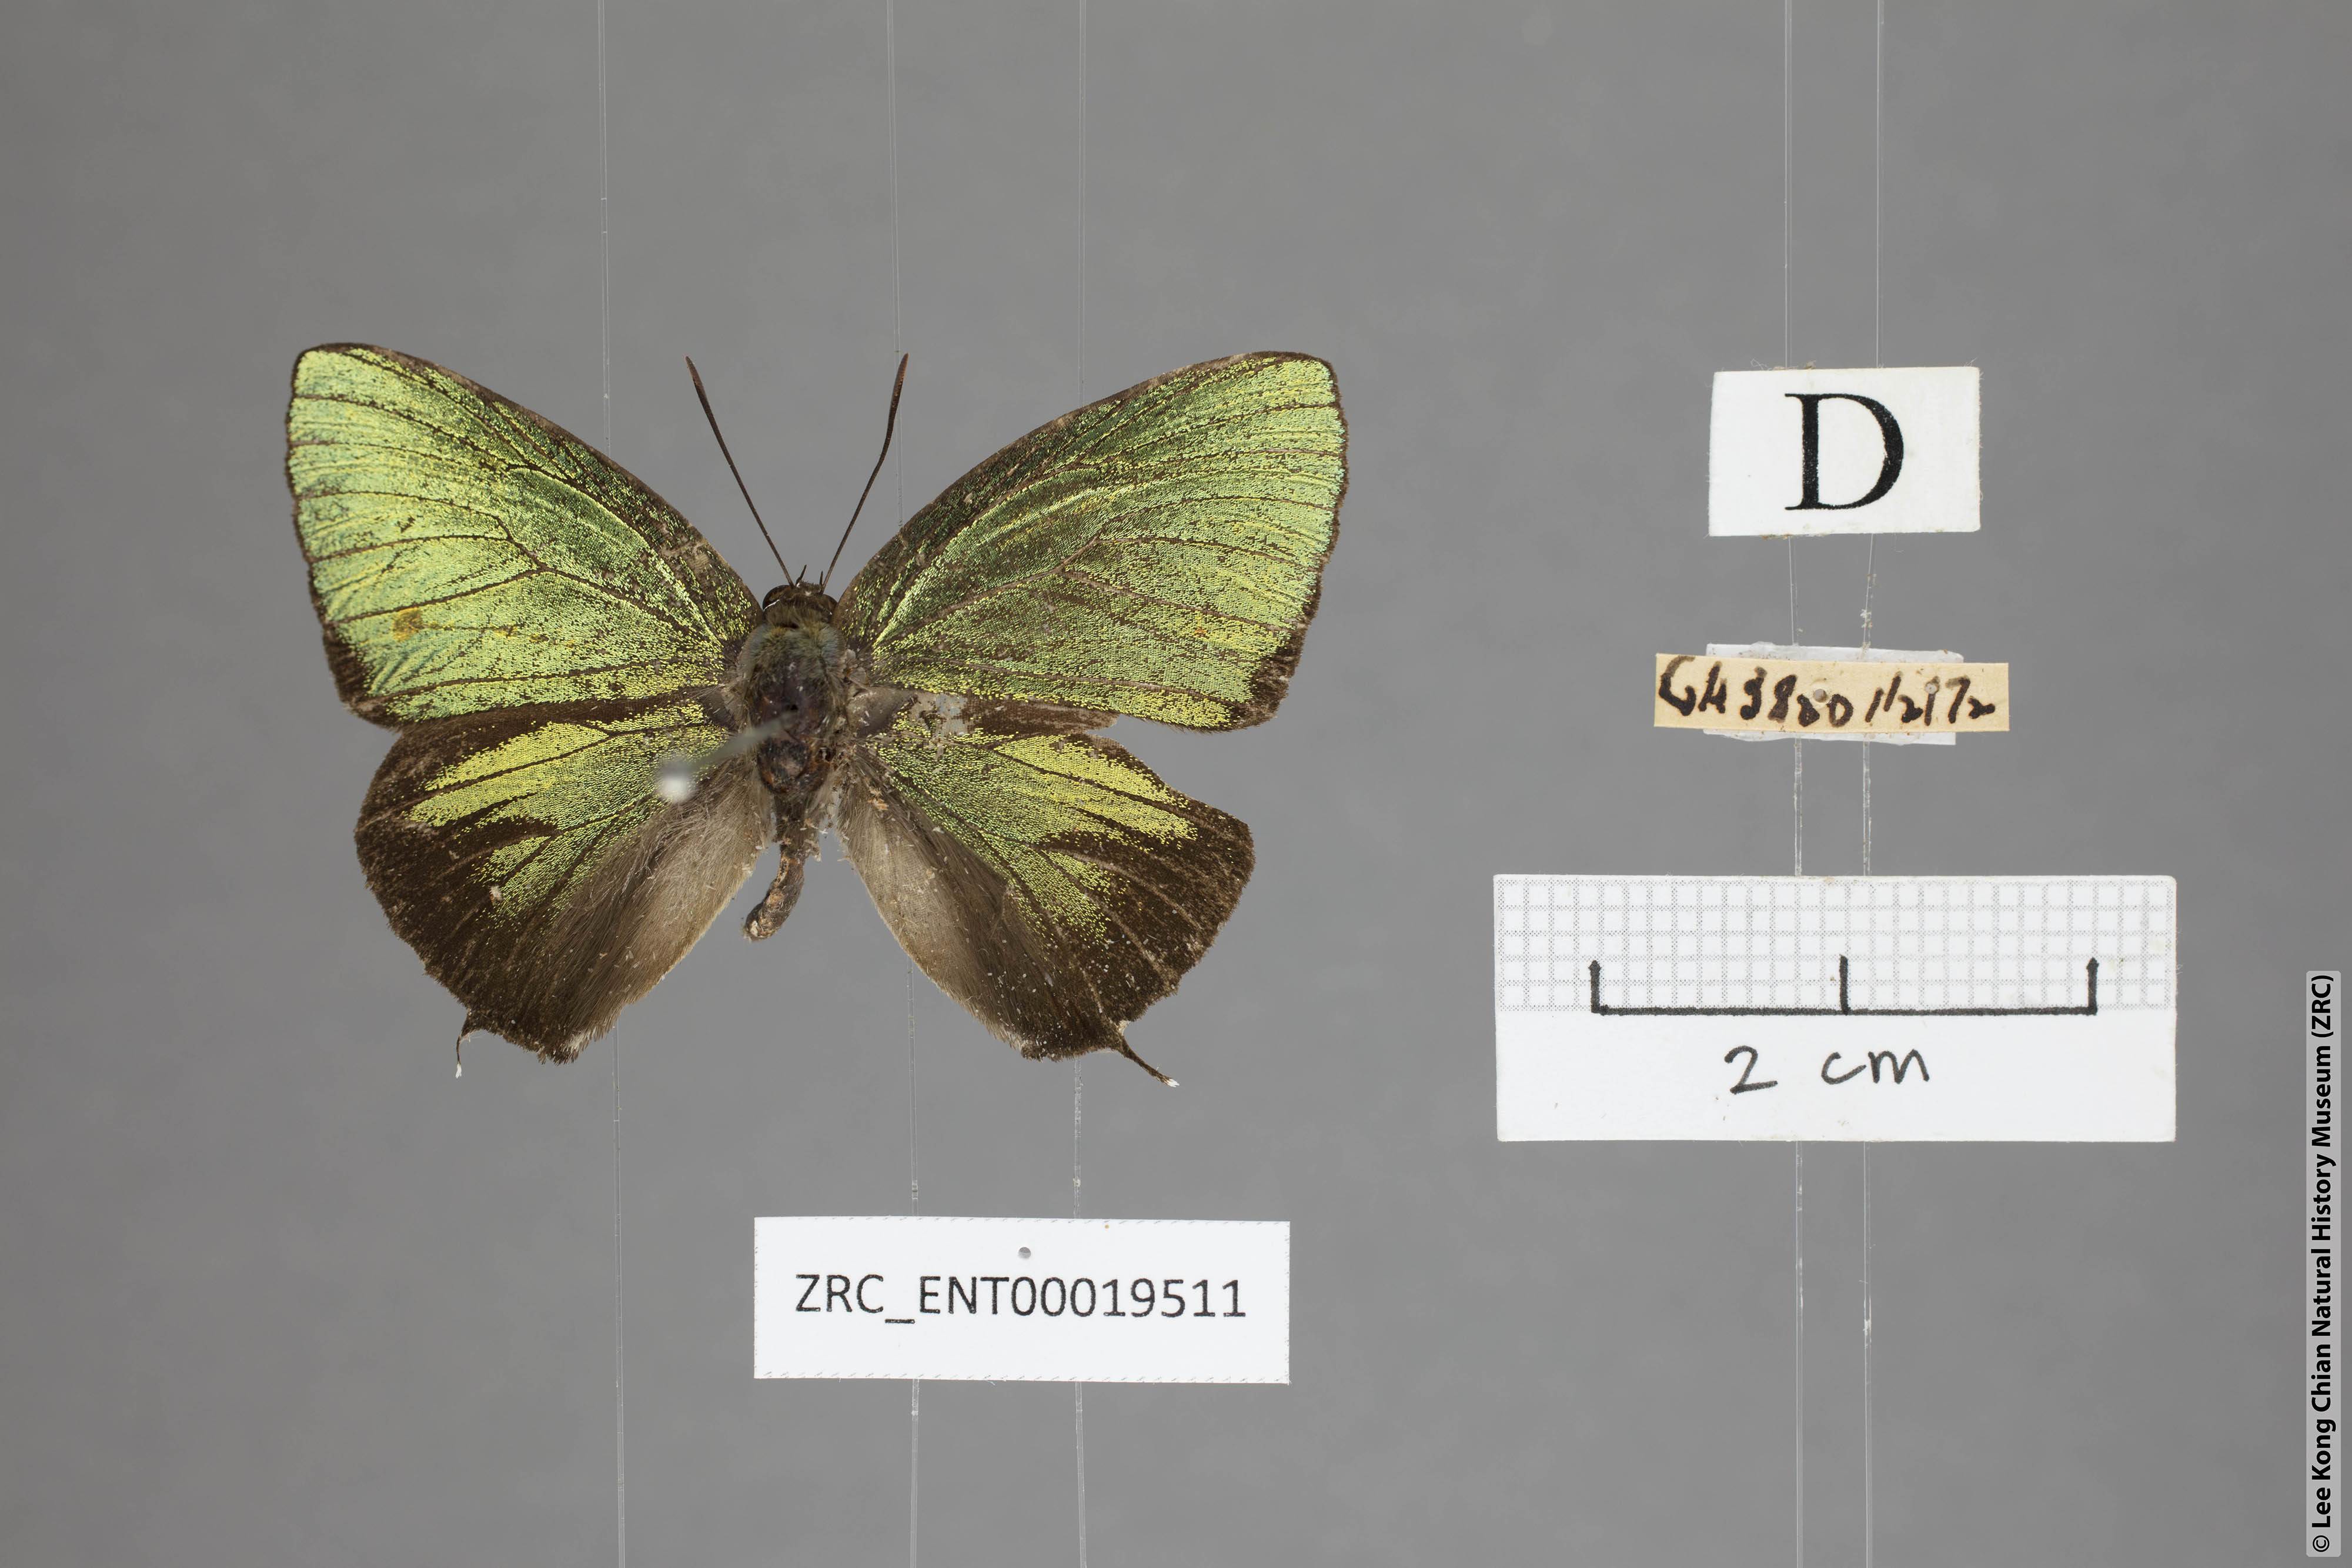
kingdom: Animalia
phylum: Arthropoda
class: Insecta
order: Lepidoptera
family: Lycaenidae
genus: Arhopala
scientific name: Arhopala hellenore
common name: Doherty's green oakblue
